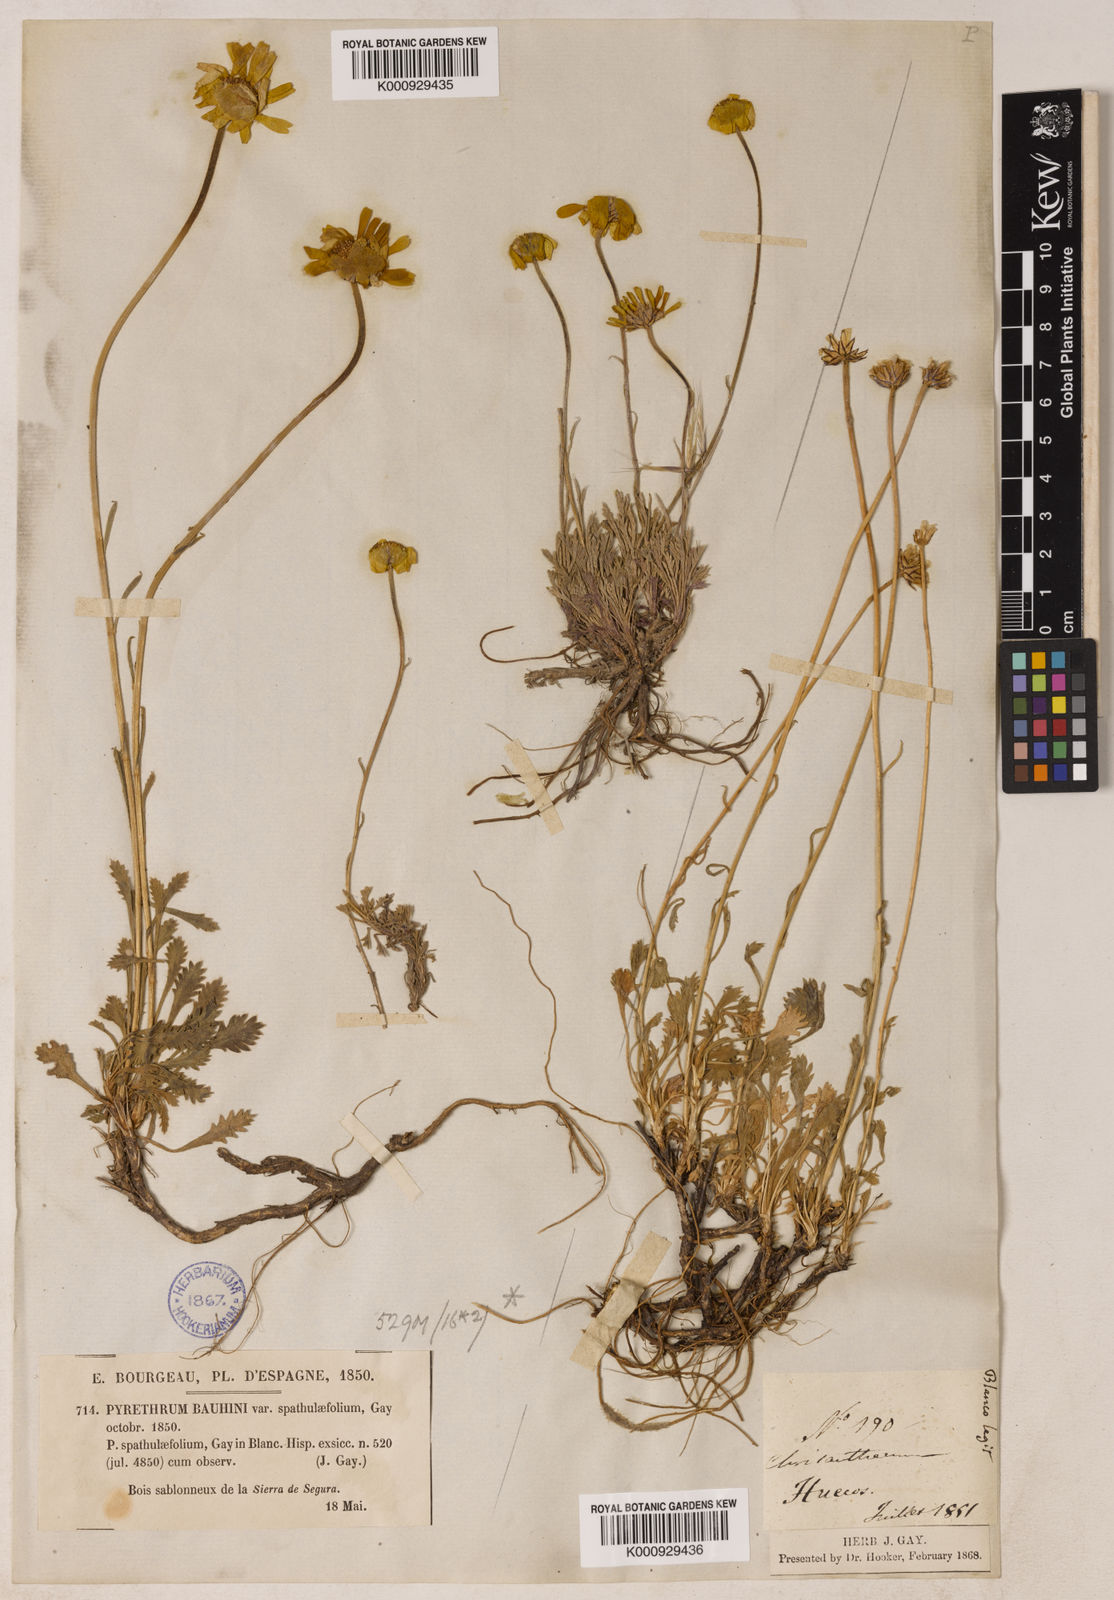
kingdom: Plantae
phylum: Tracheophyta
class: Magnoliopsida
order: Asterales
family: Asteraceae
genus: Leucanthemopsis
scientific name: Leucanthemopsis spathulifolia
